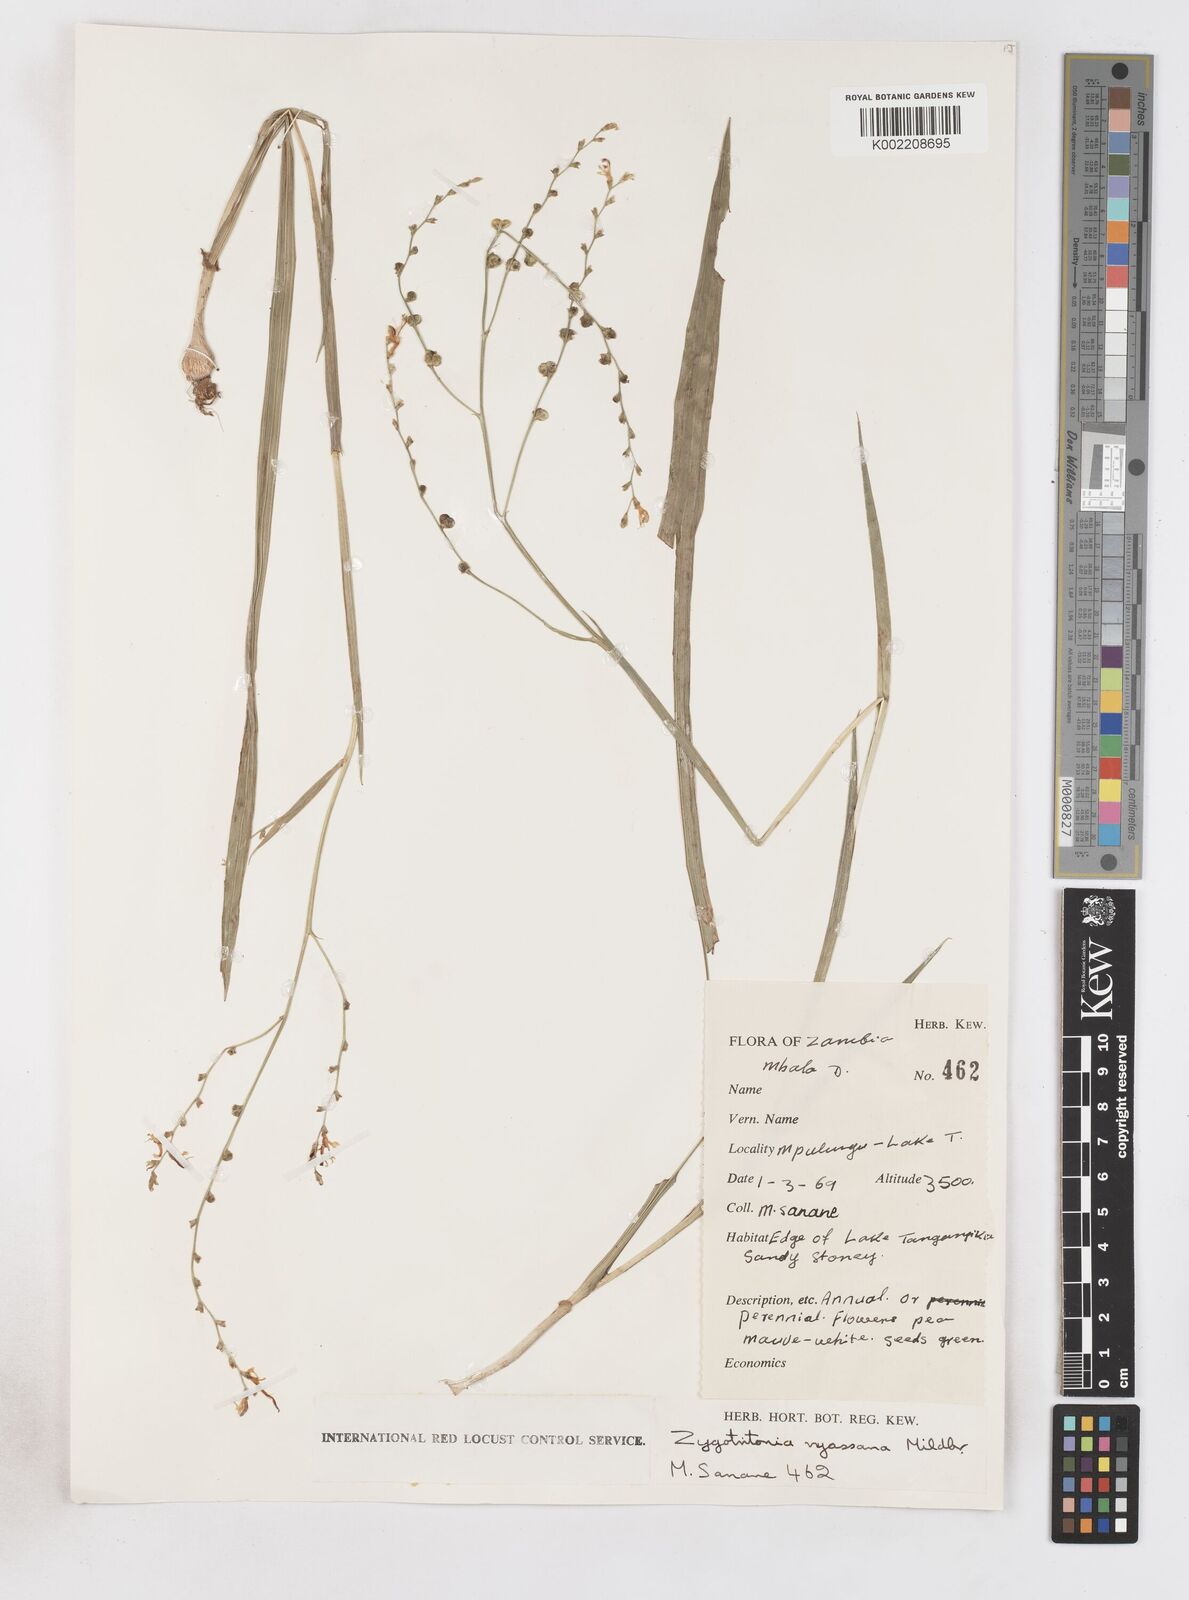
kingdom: Plantae
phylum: Tracheophyta
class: Liliopsida
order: Asparagales
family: Iridaceae
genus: Zygotritonia
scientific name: Zygotritonia nyassana
